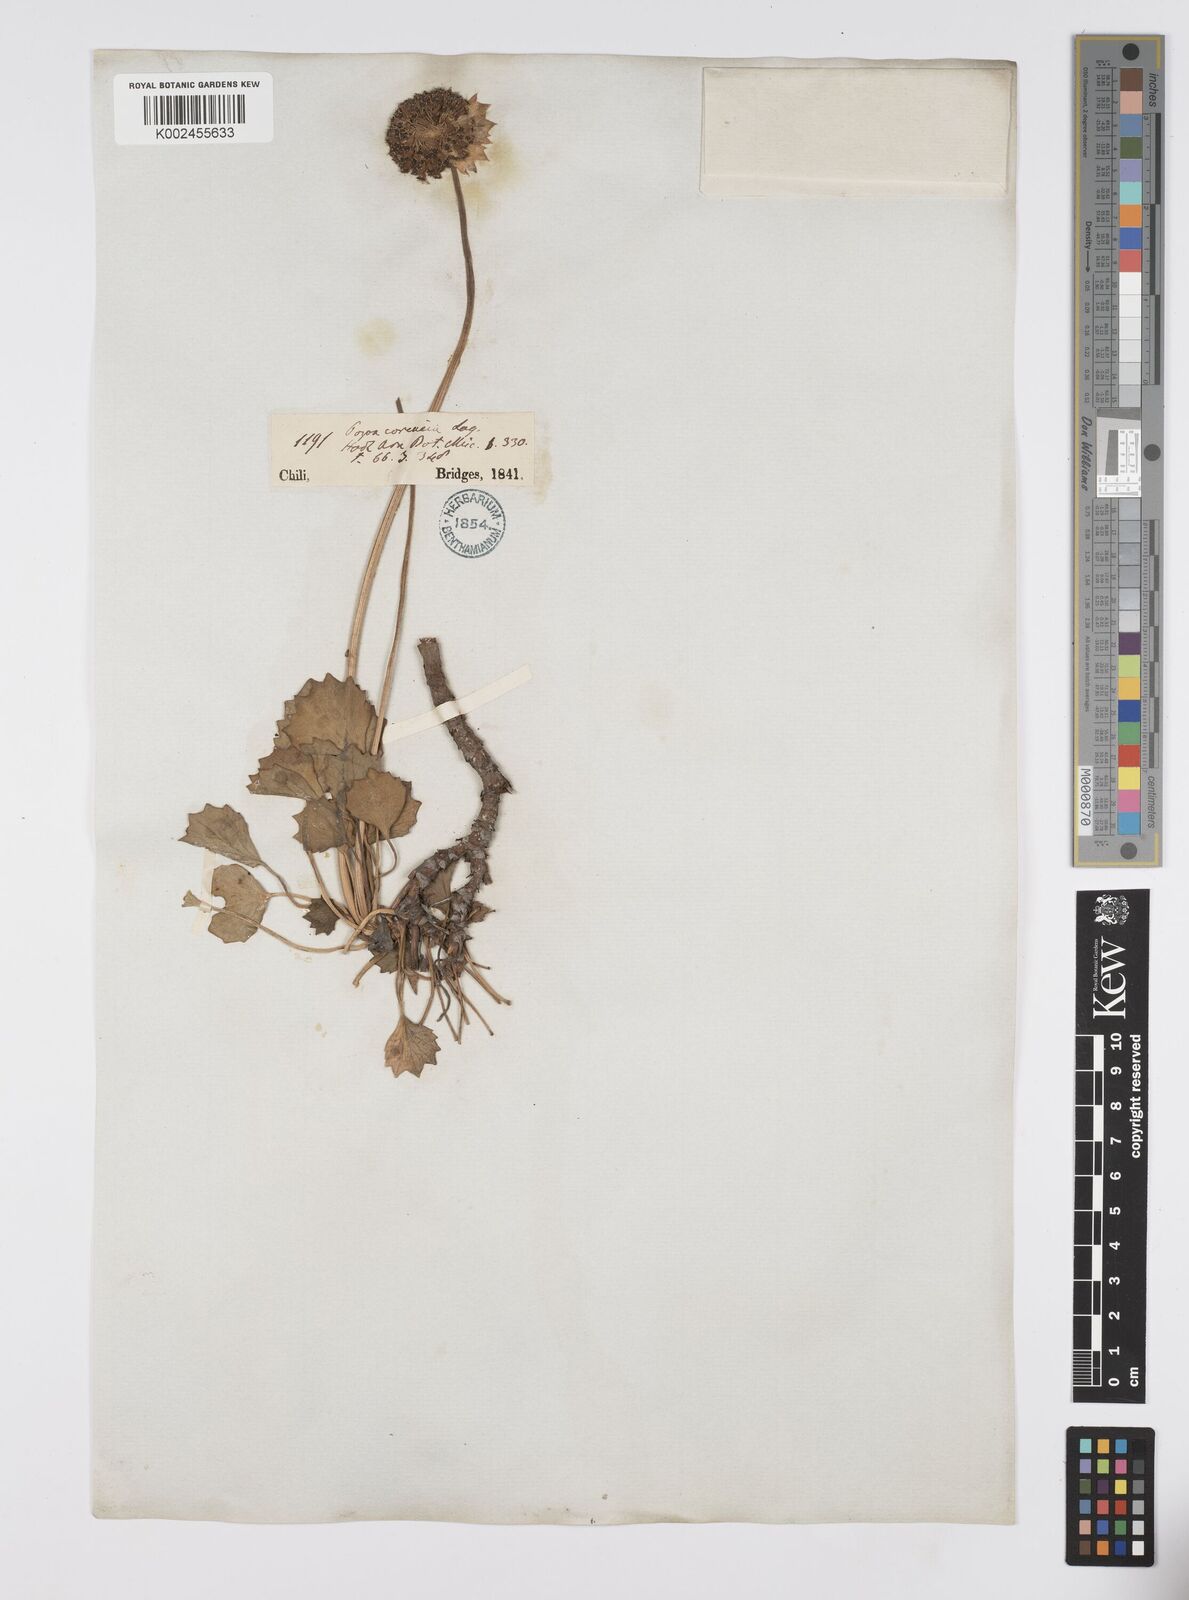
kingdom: Plantae
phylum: Tracheophyta
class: Magnoliopsida
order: Apiales
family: Apiaceae
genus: Pozoa
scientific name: Pozoa coriacea
